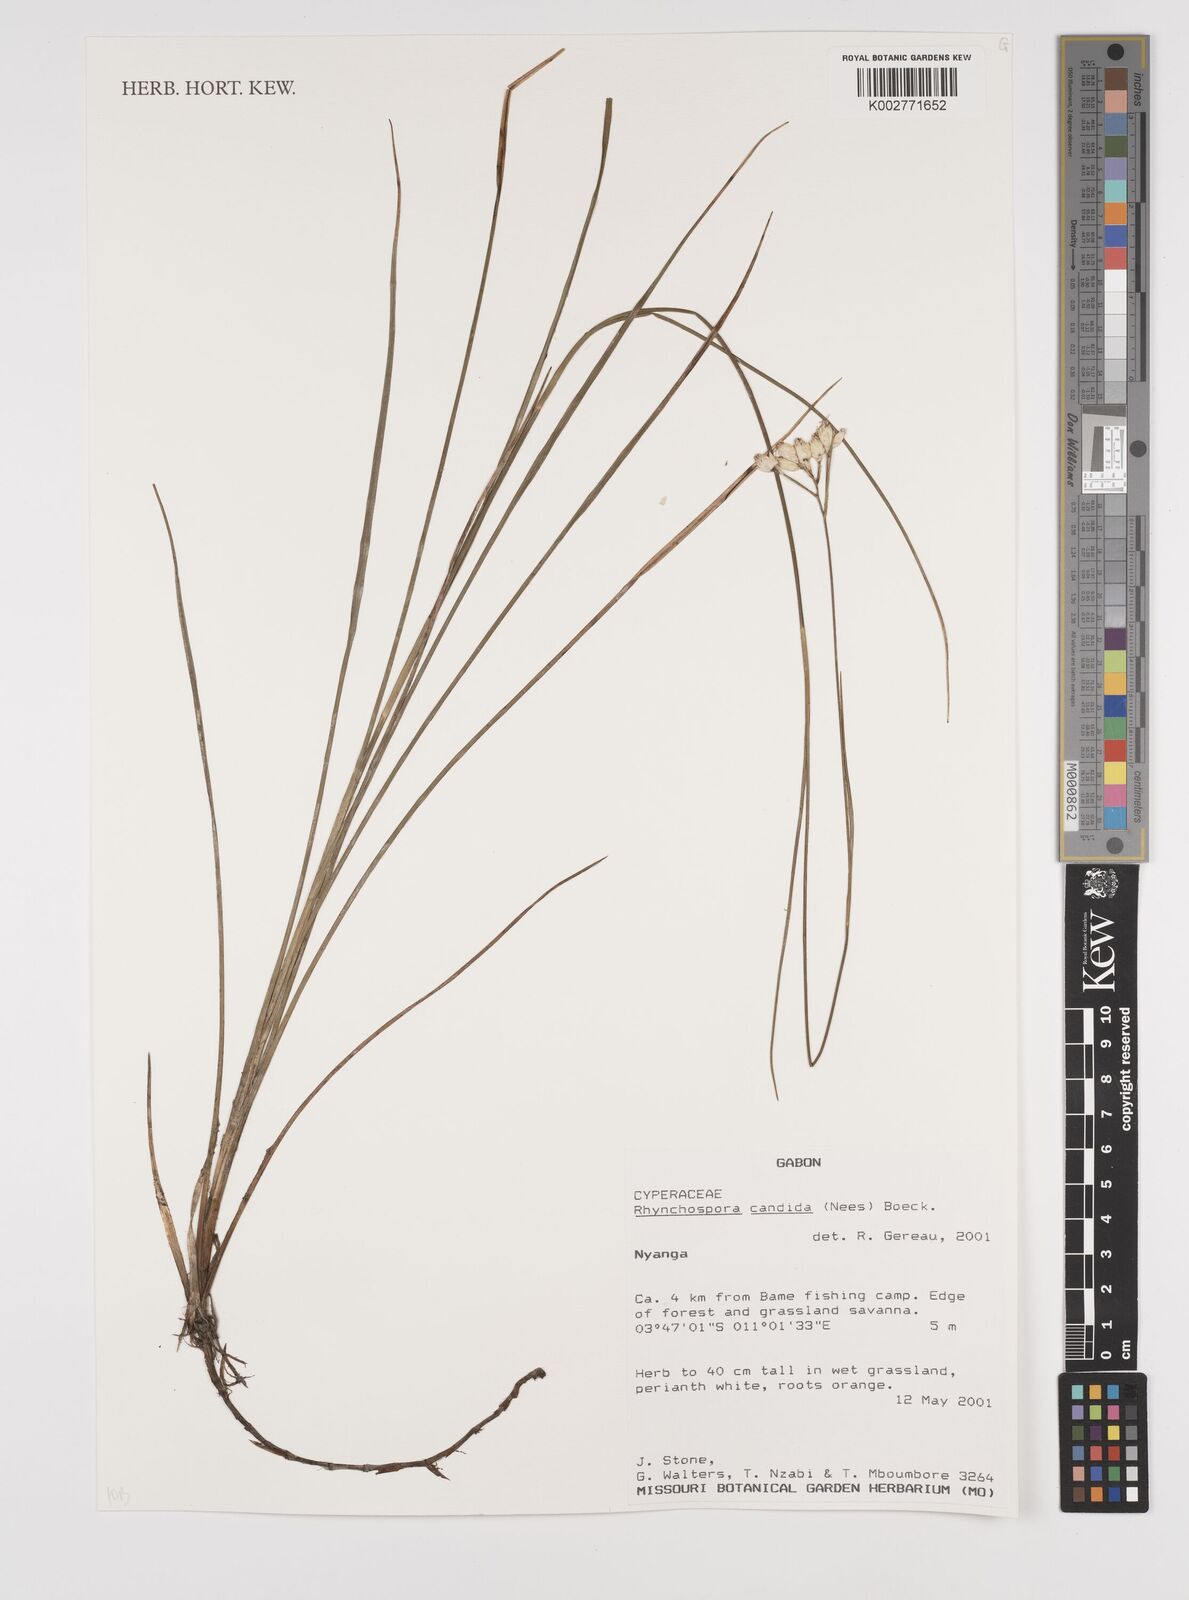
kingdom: Plantae
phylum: Tracheophyta
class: Liliopsida
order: Poales
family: Cyperaceae
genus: Rhynchospora
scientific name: Rhynchospora candida
